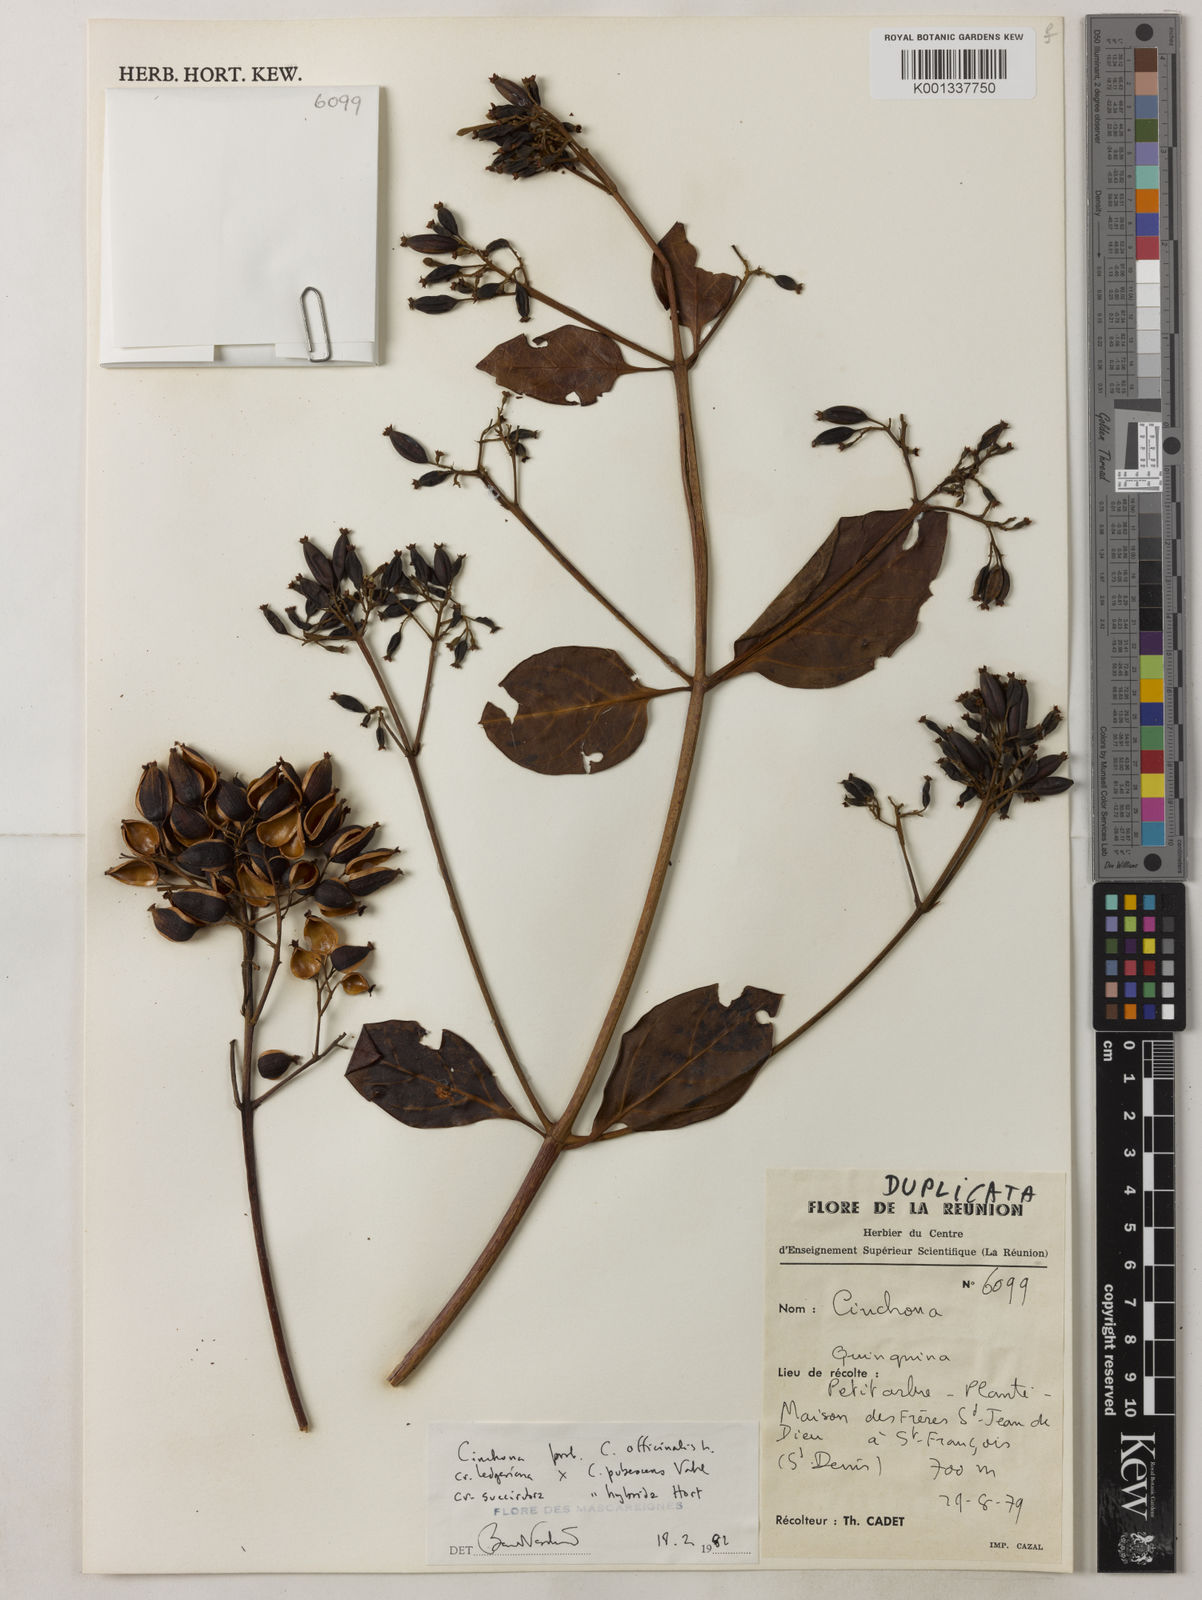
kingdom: Plantae
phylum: Tracheophyta
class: Magnoliopsida
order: Gentianales
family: Rubiaceae
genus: Cinchona
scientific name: Cinchona
